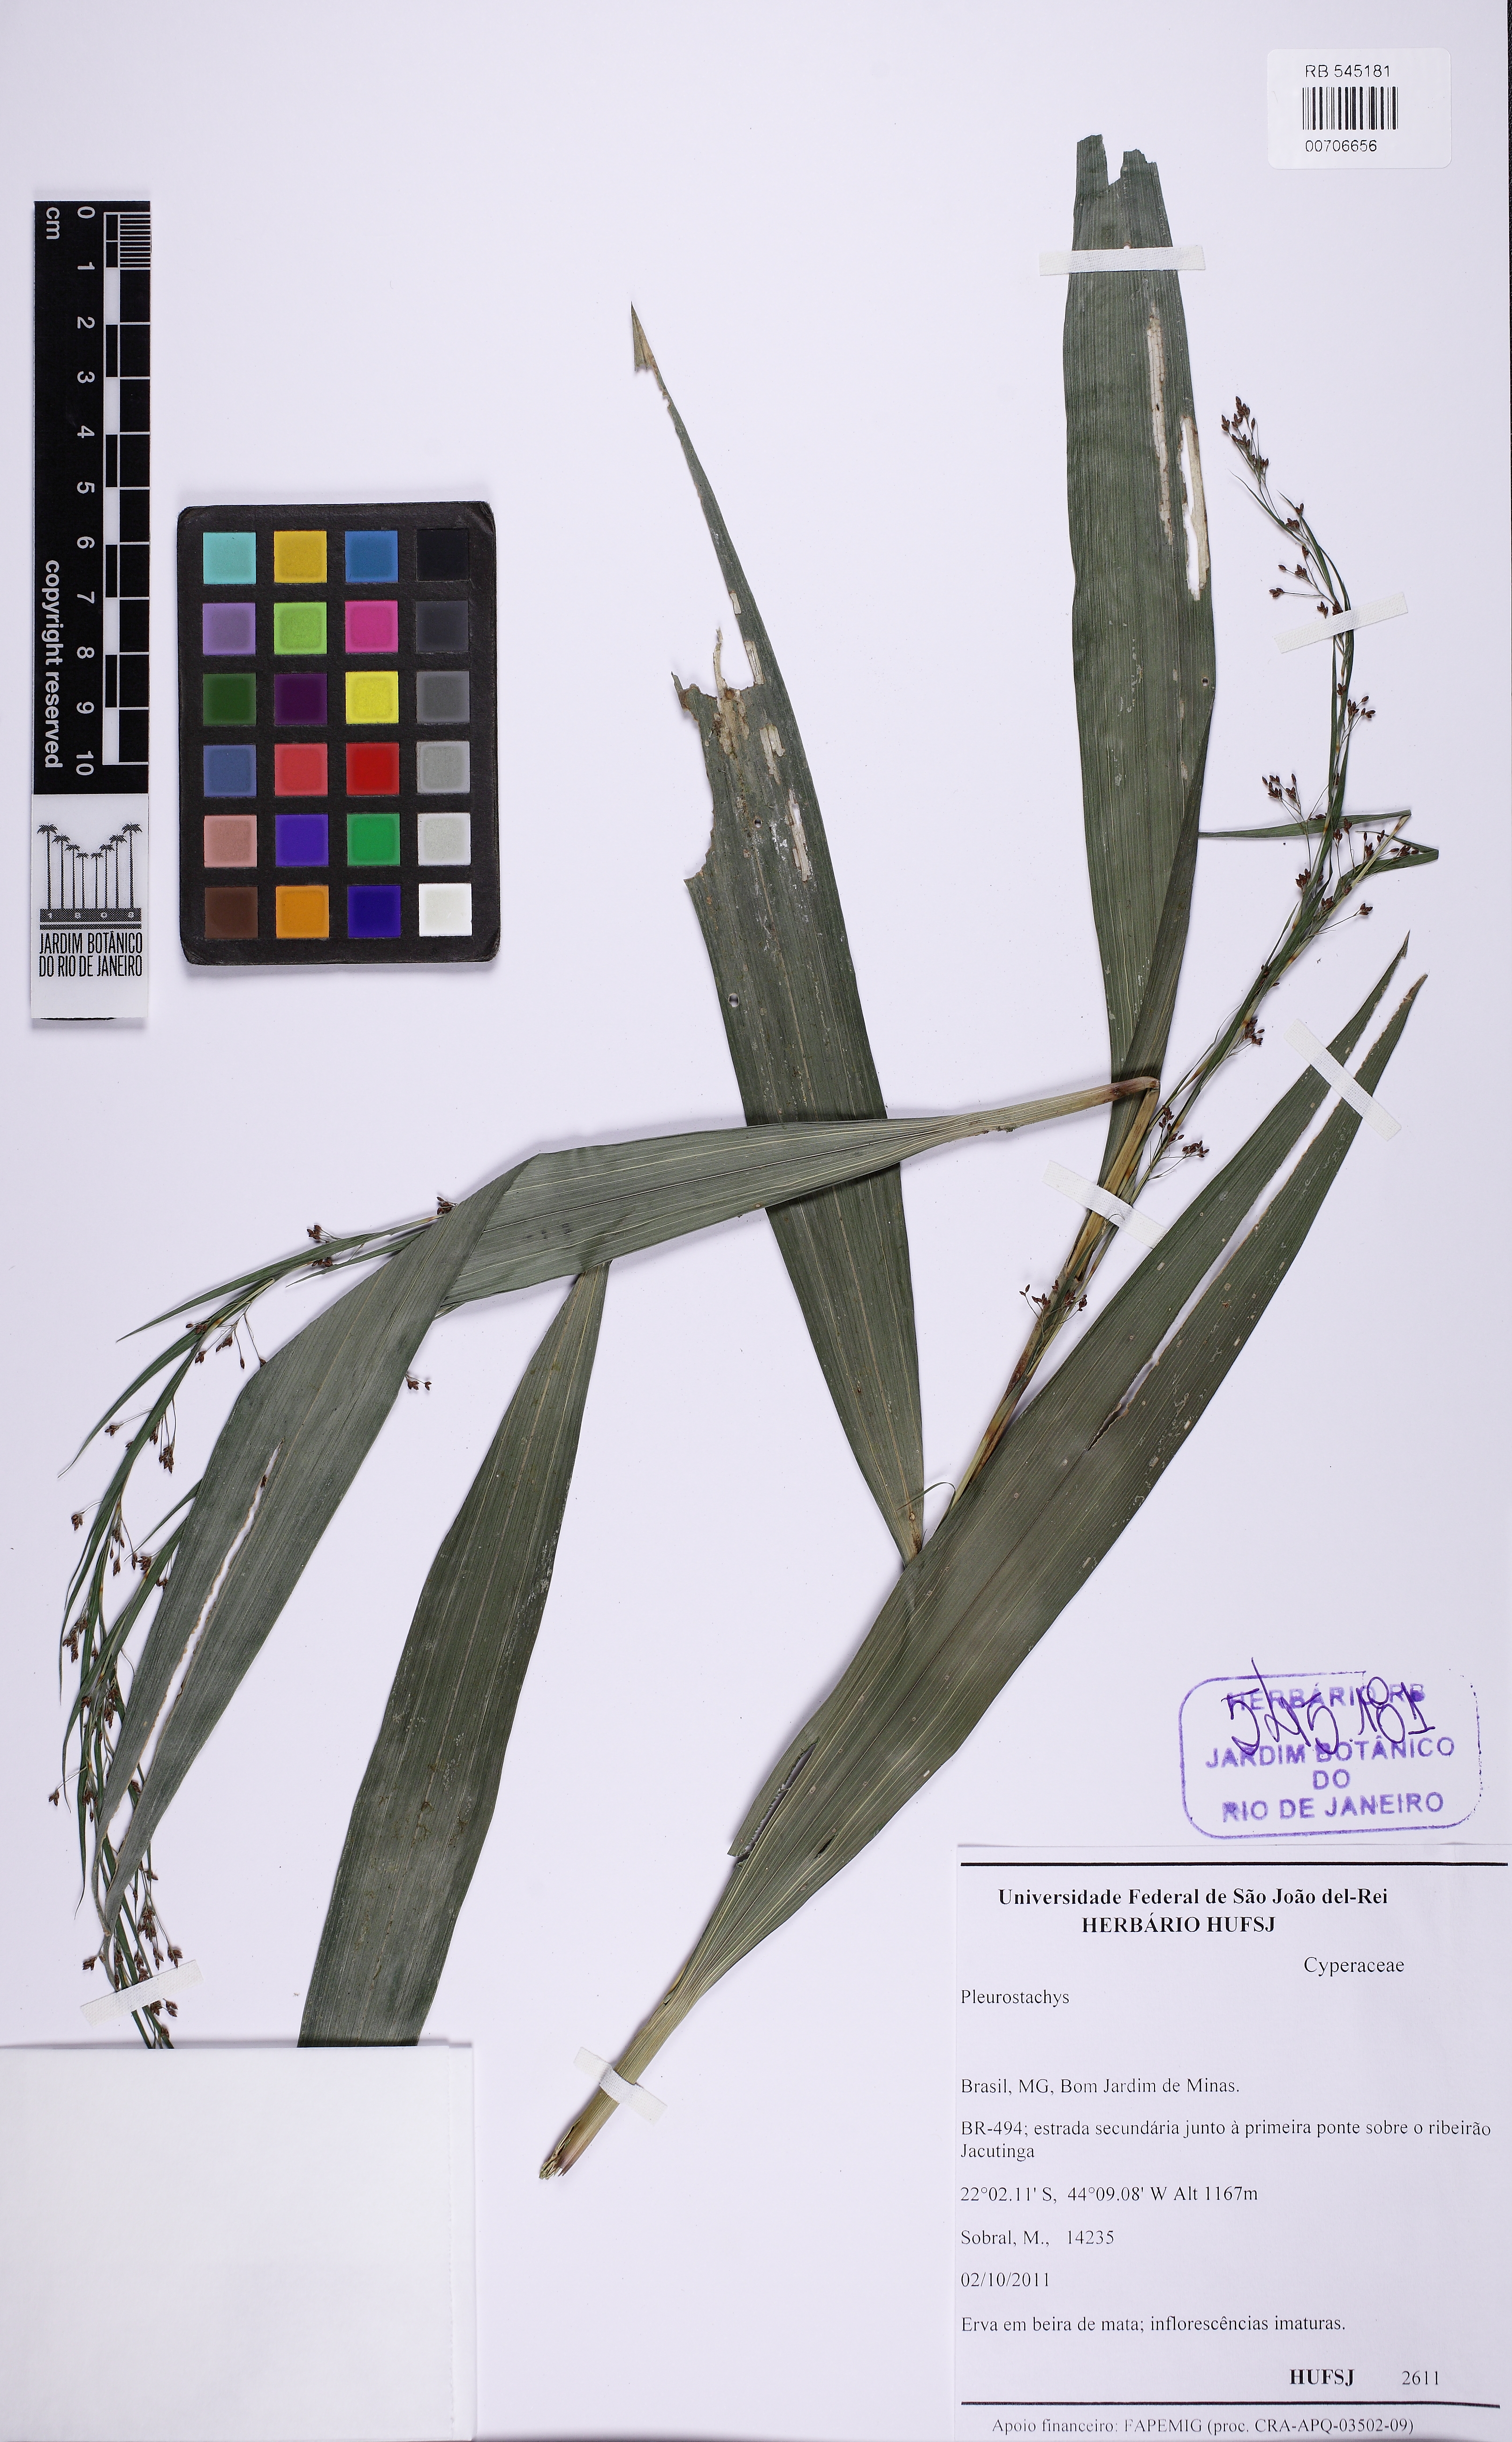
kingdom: Plantae
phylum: Tracheophyta
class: Liliopsida
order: Poales
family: Cyperaceae
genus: Rhynchospora
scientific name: Rhynchospora
